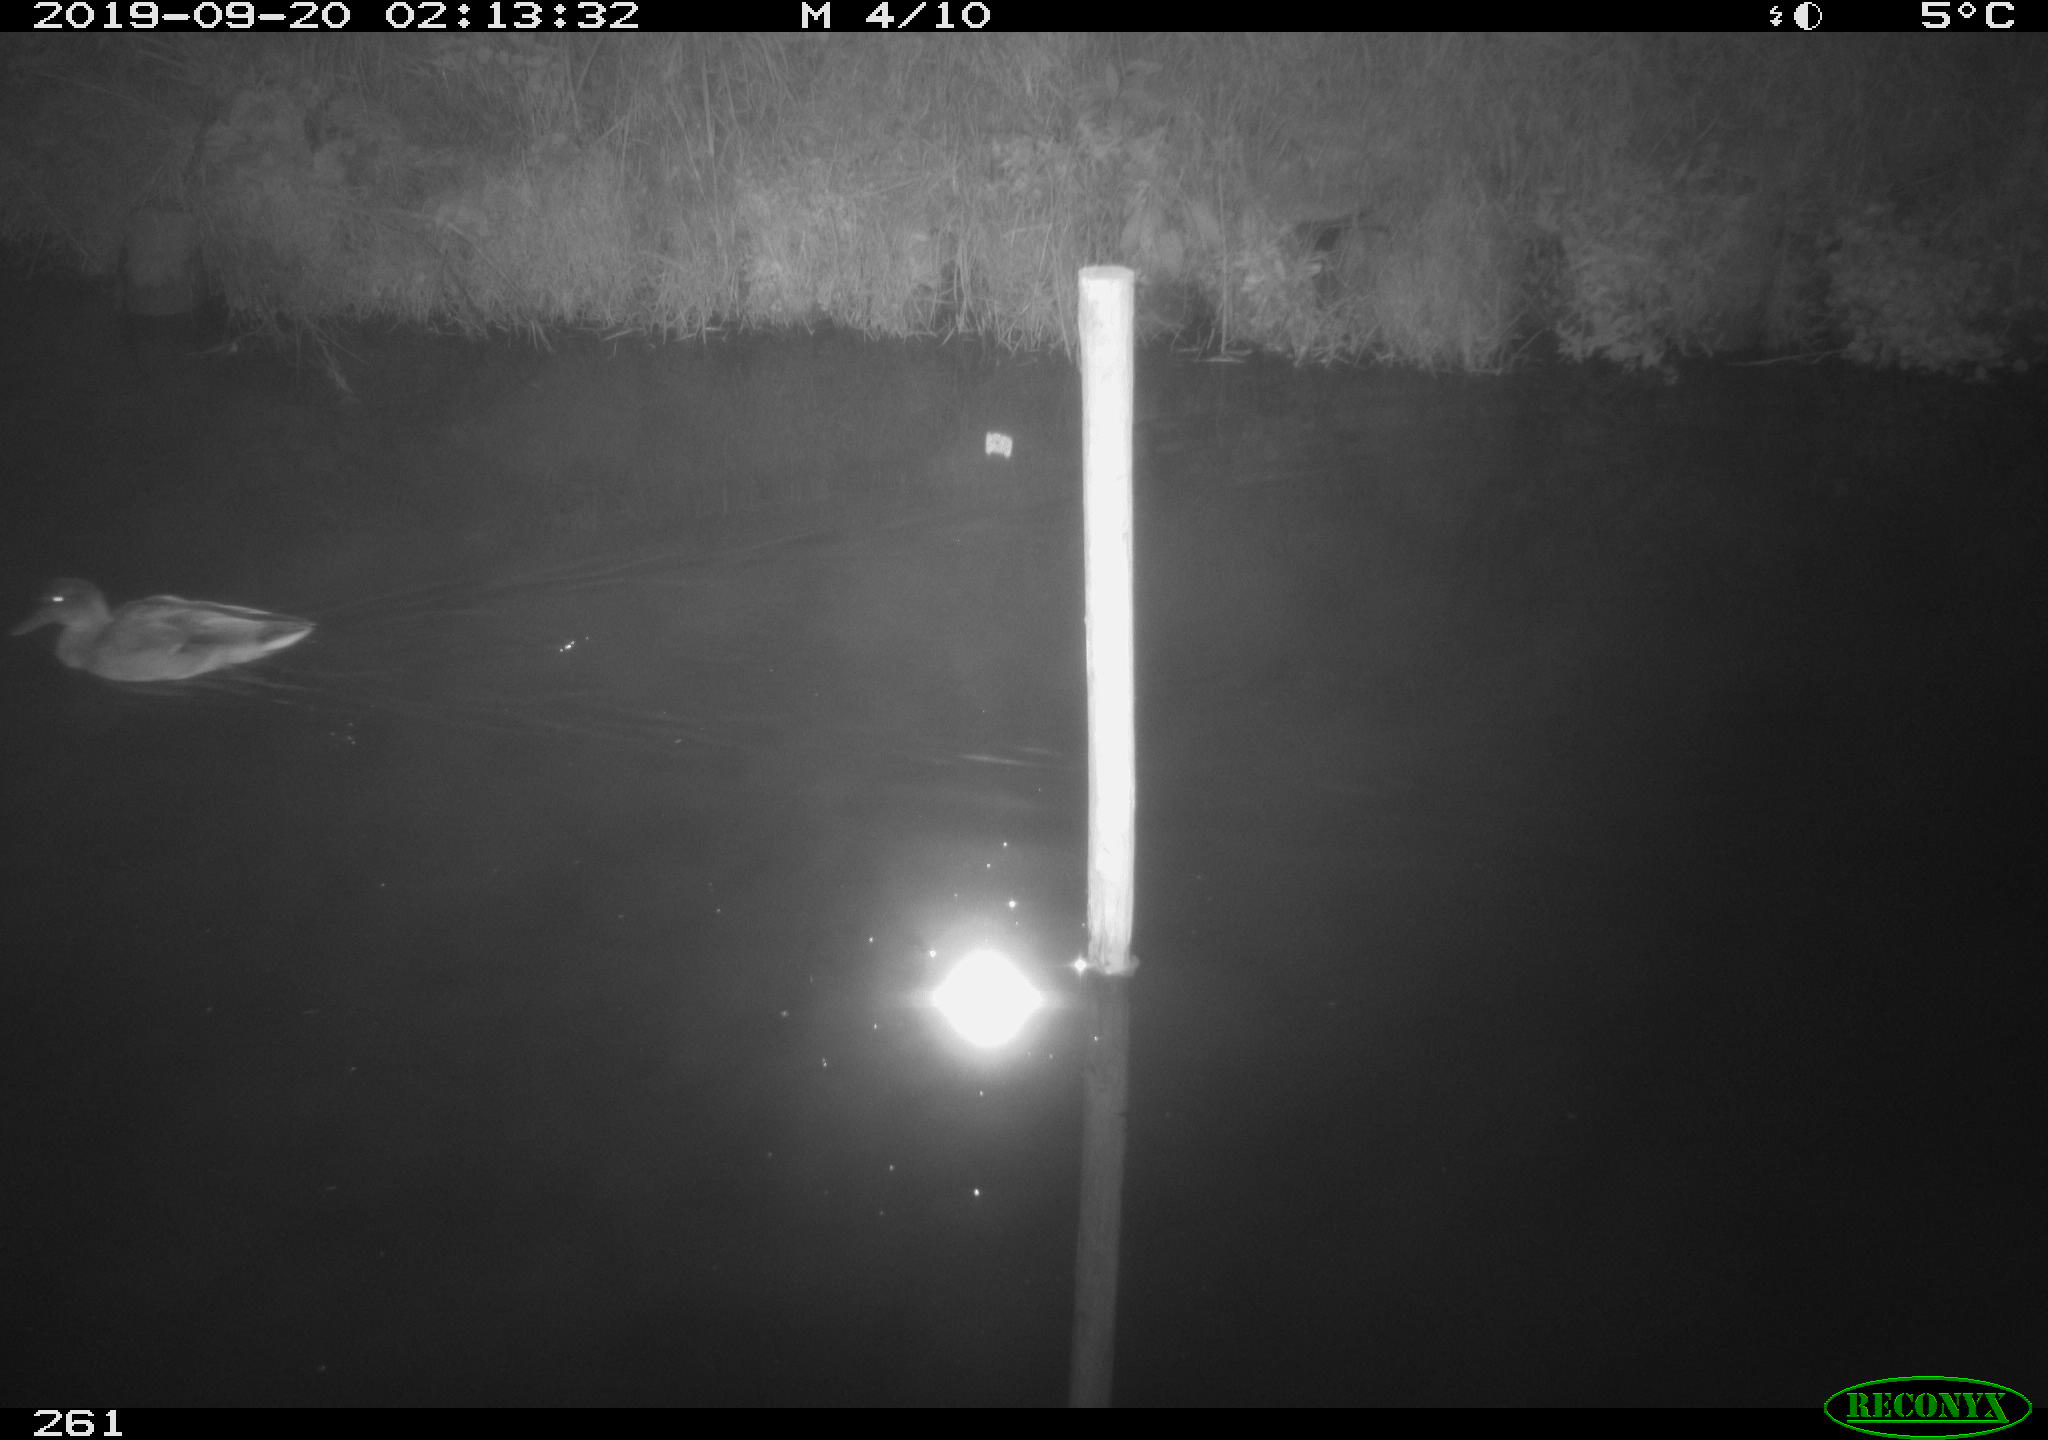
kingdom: Animalia
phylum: Chordata
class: Aves
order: Anseriformes
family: Anatidae
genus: Anas
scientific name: Anas platyrhynchos
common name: Mallard
